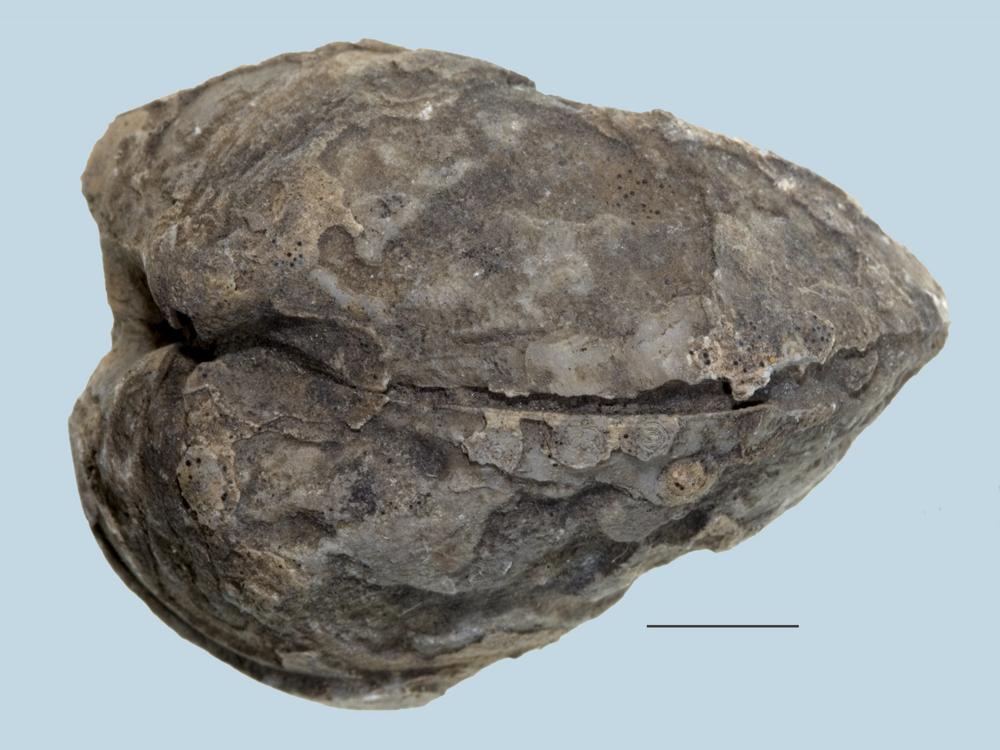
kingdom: Animalia
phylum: Brachiopoda
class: Rhynchonellata
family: Porambonitidae
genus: Porambonites
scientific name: Porambonites
